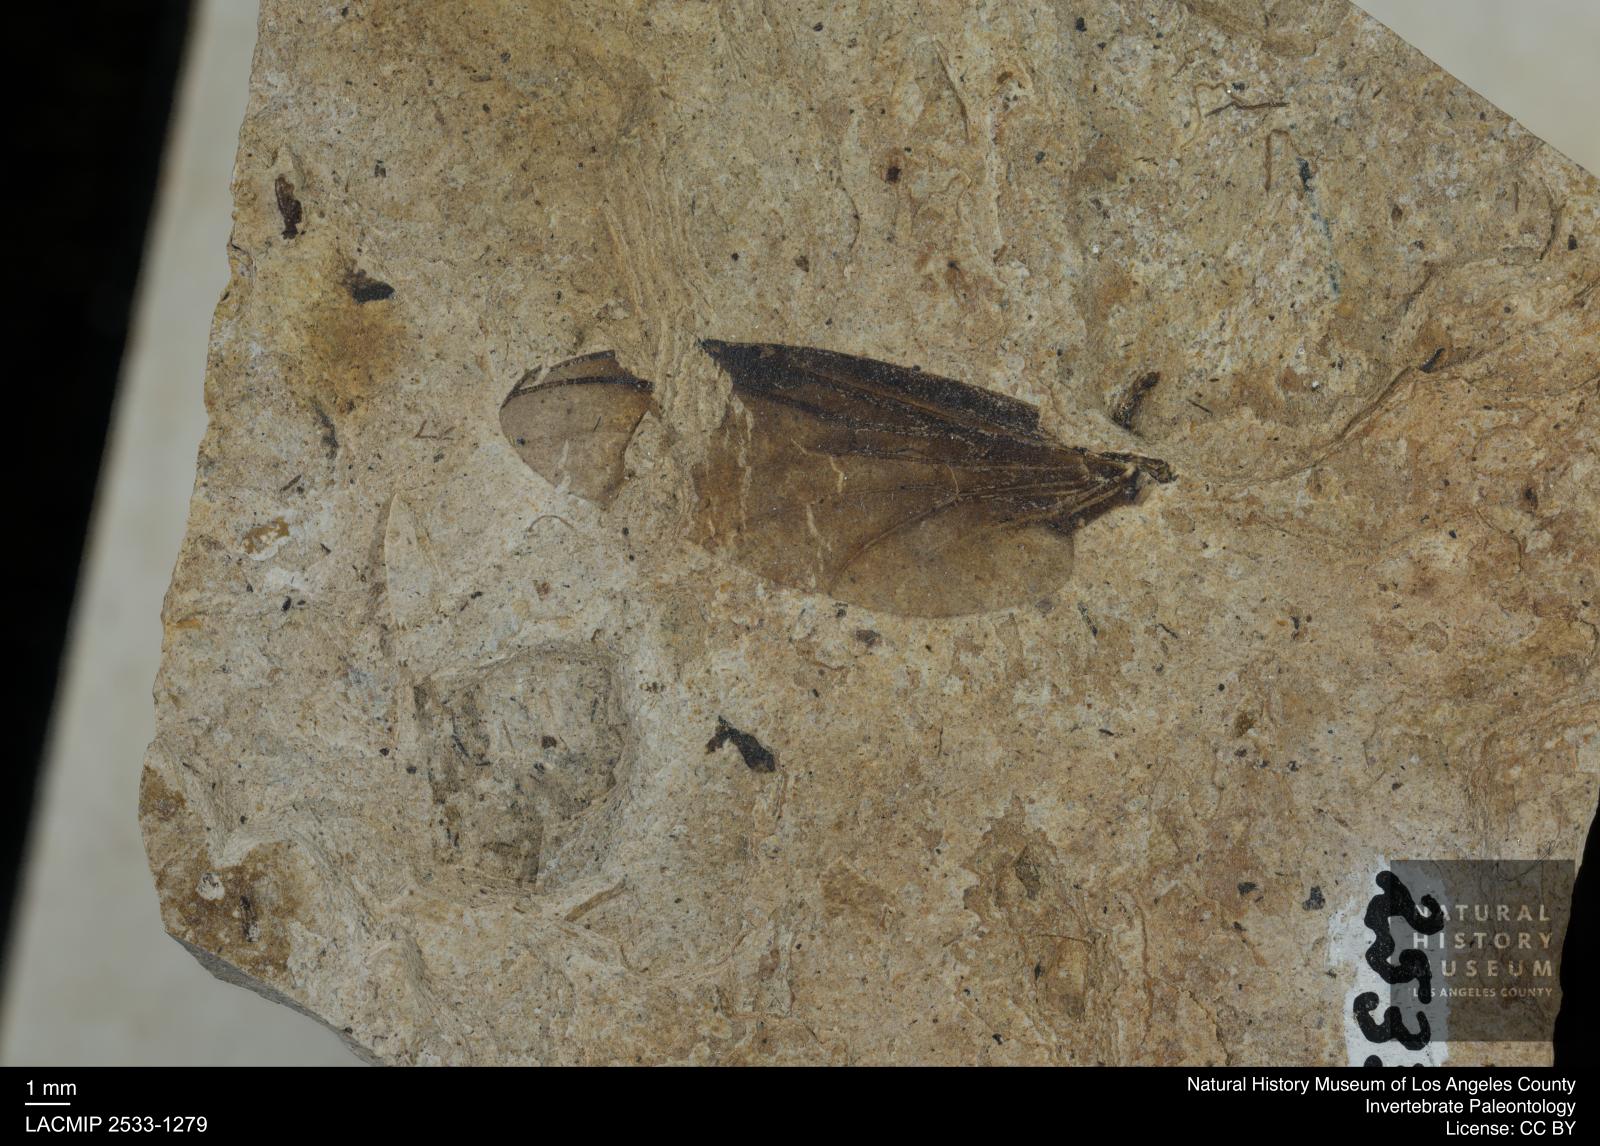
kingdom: Animalia
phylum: Arthropoda
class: Insecta
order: Diptera
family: Bibionidae
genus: Plecia
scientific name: Plecia dubia
